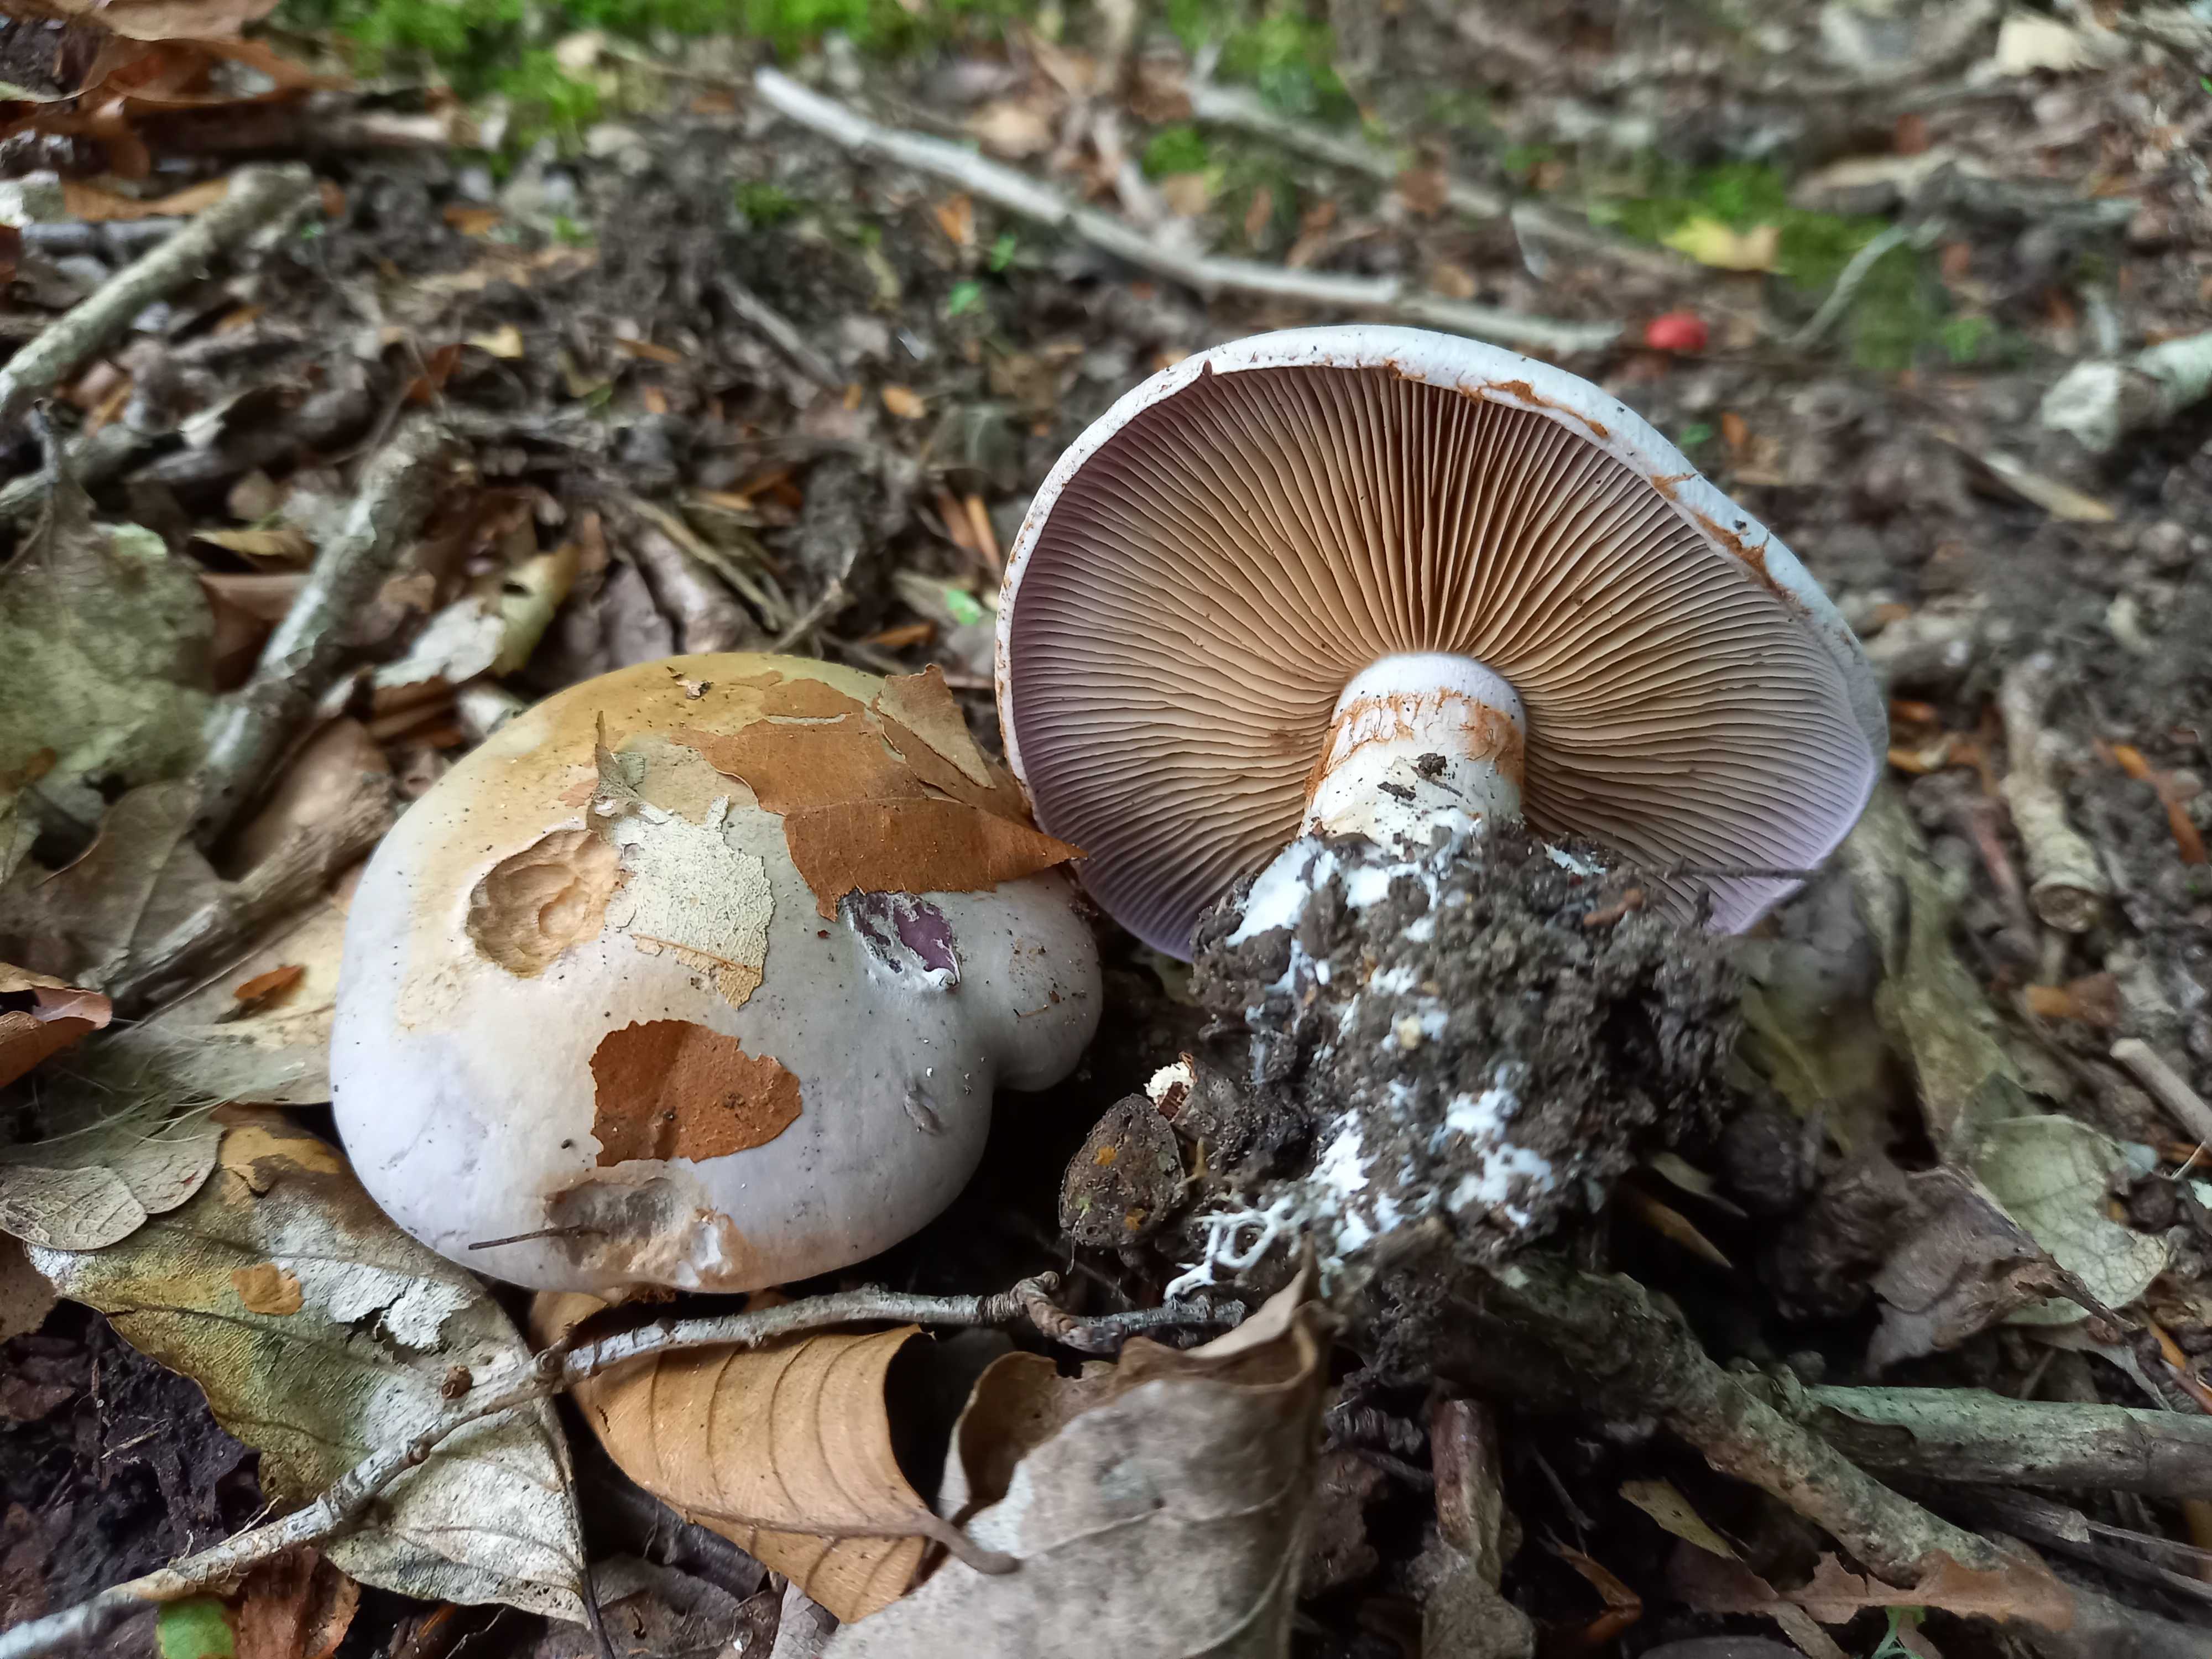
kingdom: Fungi
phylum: Basidiomycota
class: Agaricomycetes
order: Agaricales
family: Cortinariaceae
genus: Cortinarius
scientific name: Cortinarius largus
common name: violetrandet slørhat
